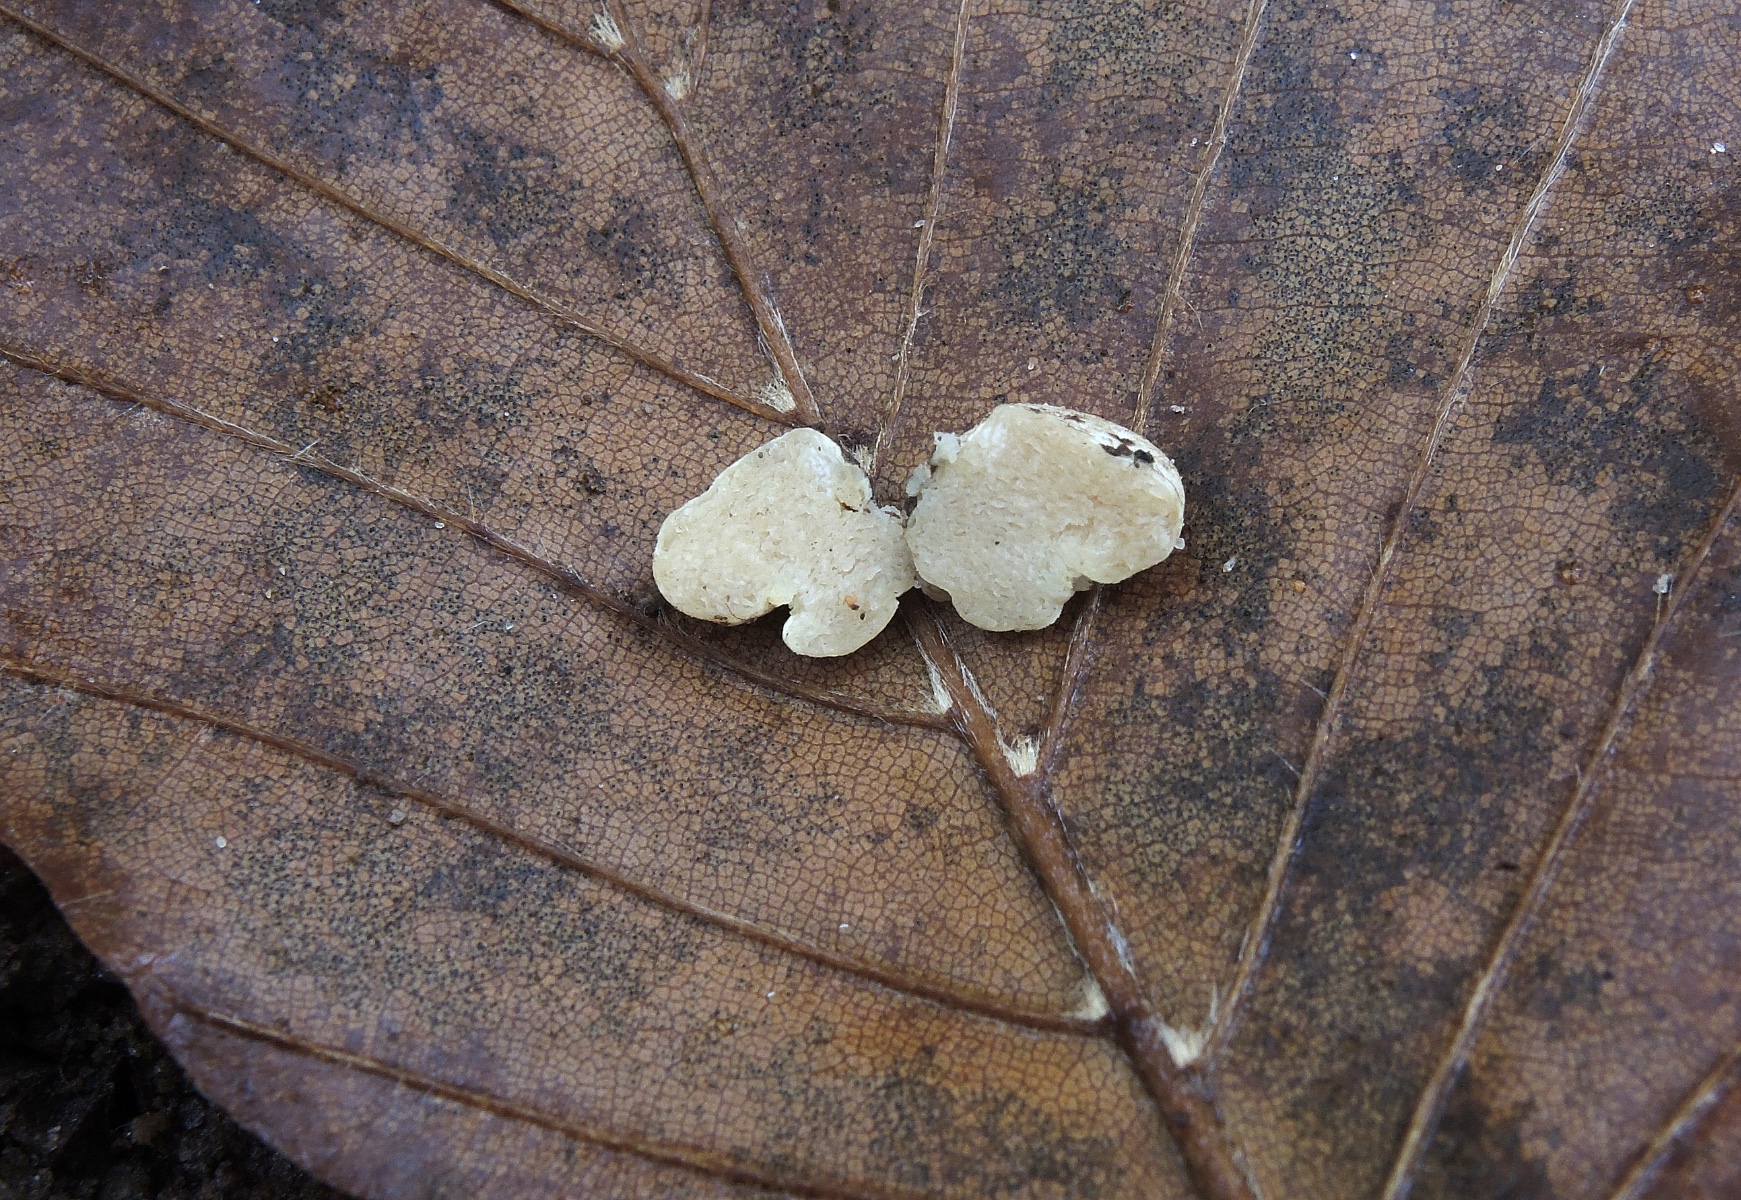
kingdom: Fungi
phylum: Basidiomycota
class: Agaricomycetes
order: Agaricales
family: Hymenogastraceae
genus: Hymenogaster
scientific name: Hymenogaster
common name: knoldtrøffel
